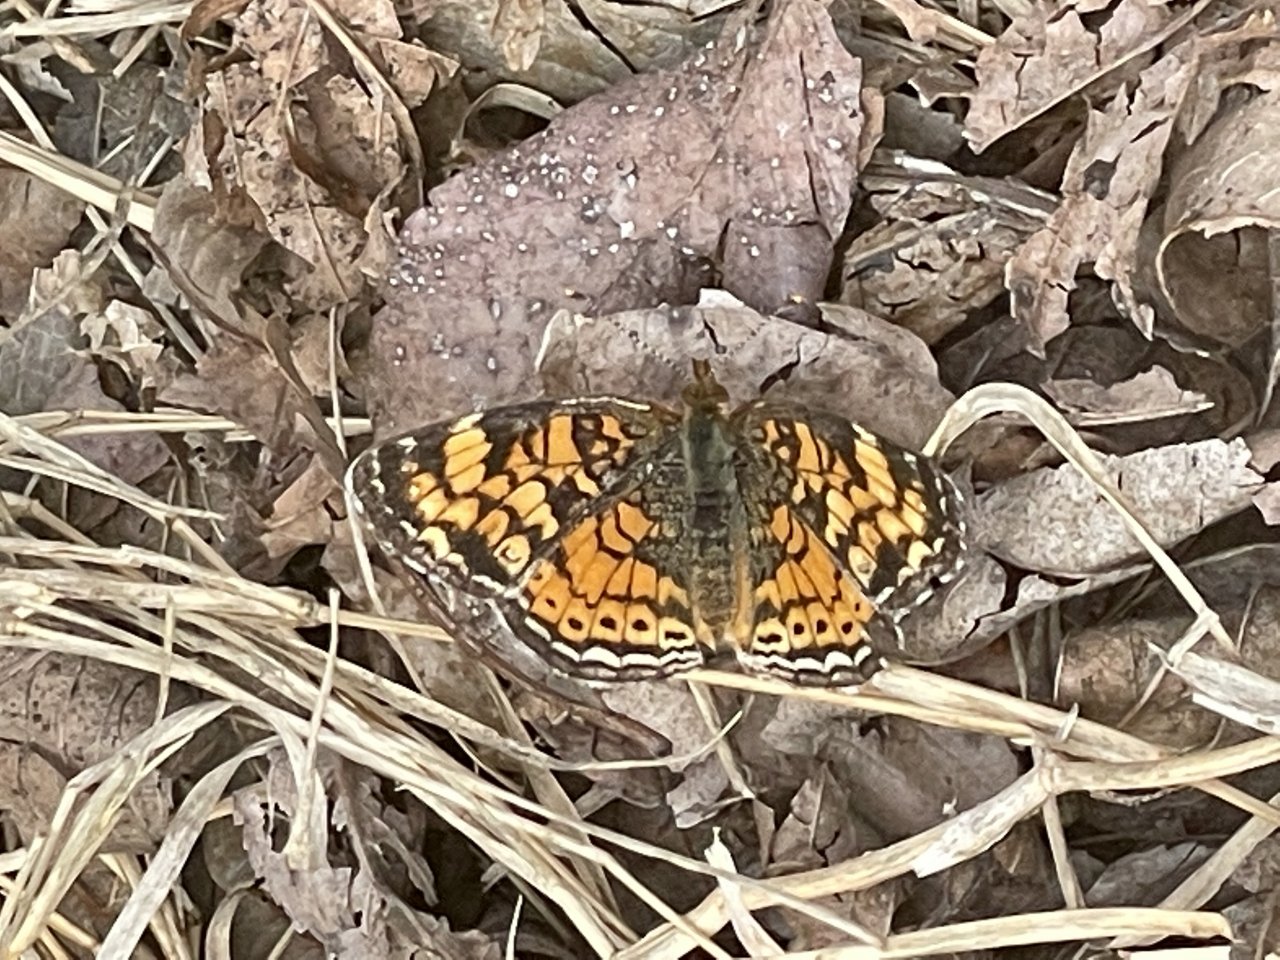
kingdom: Animalia
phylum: Arthropoda
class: Insecta
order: Lepidoptera
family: Nymphalidae
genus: Phyciodes
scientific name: Phyciodes tharos
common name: Pearl Crescent
